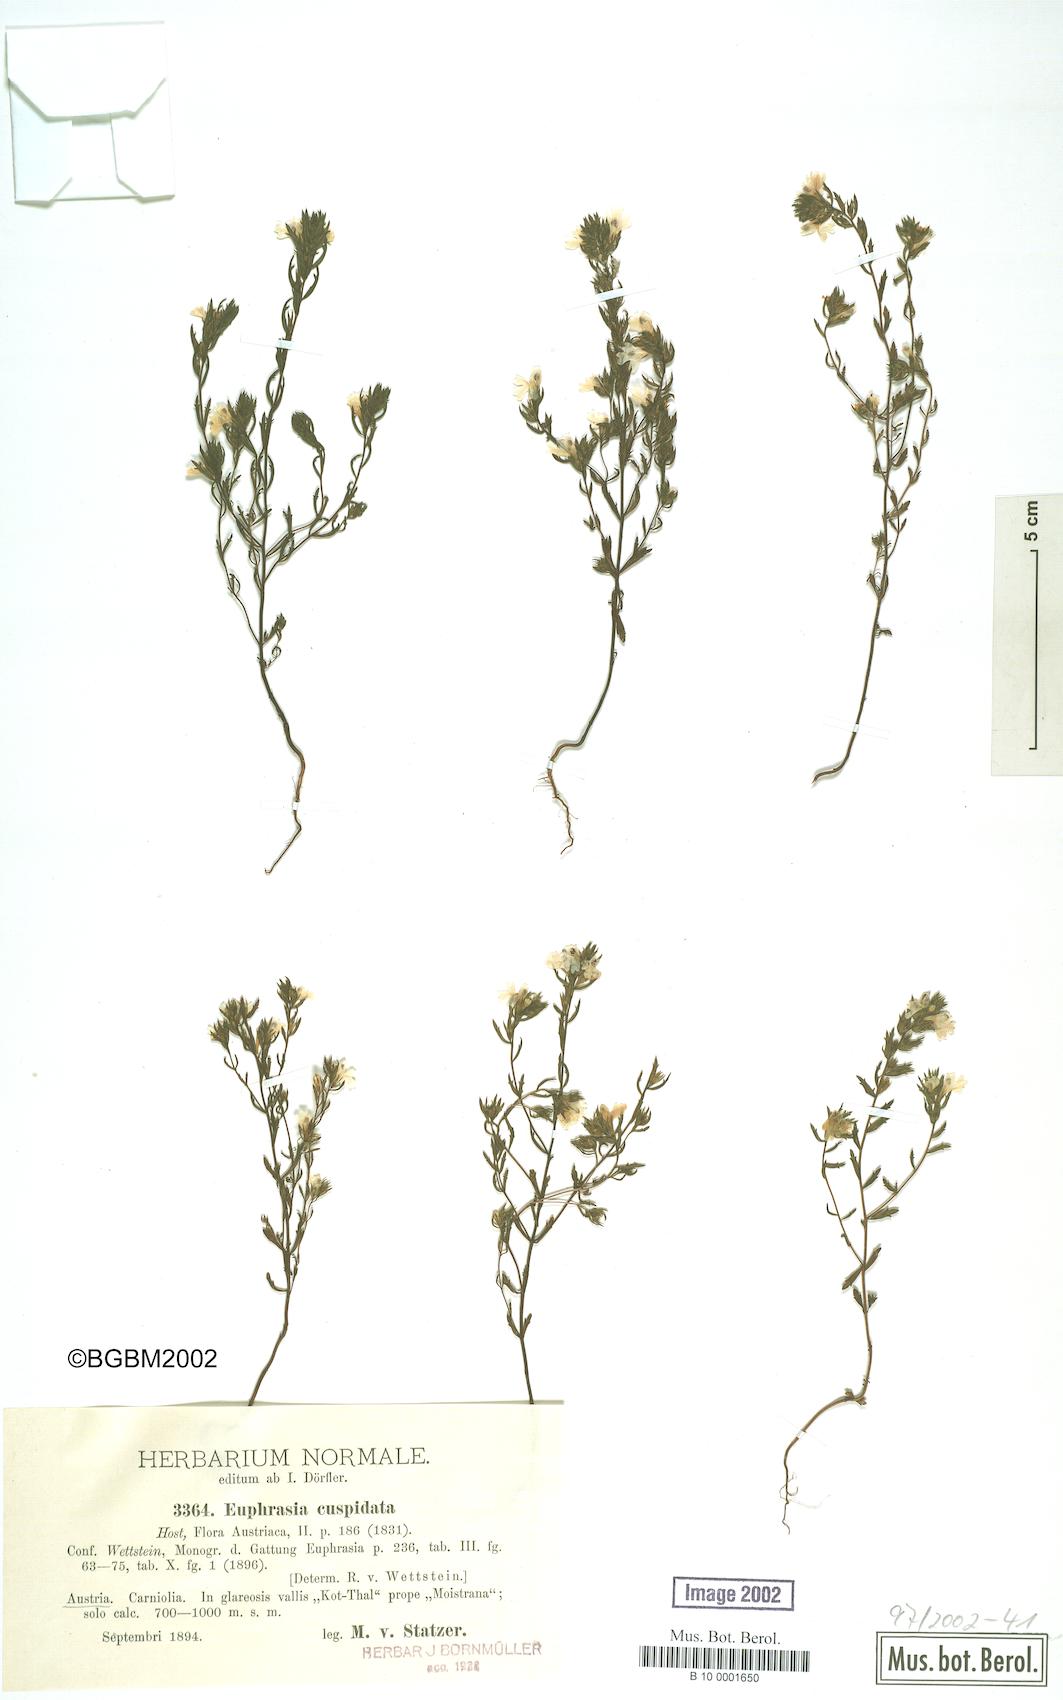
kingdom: Plantae
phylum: Tracheophyta
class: Magnoliopsida
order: Lamiales
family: Orobanchaceae
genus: Euphrasia
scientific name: Euphrasia cuspidata
